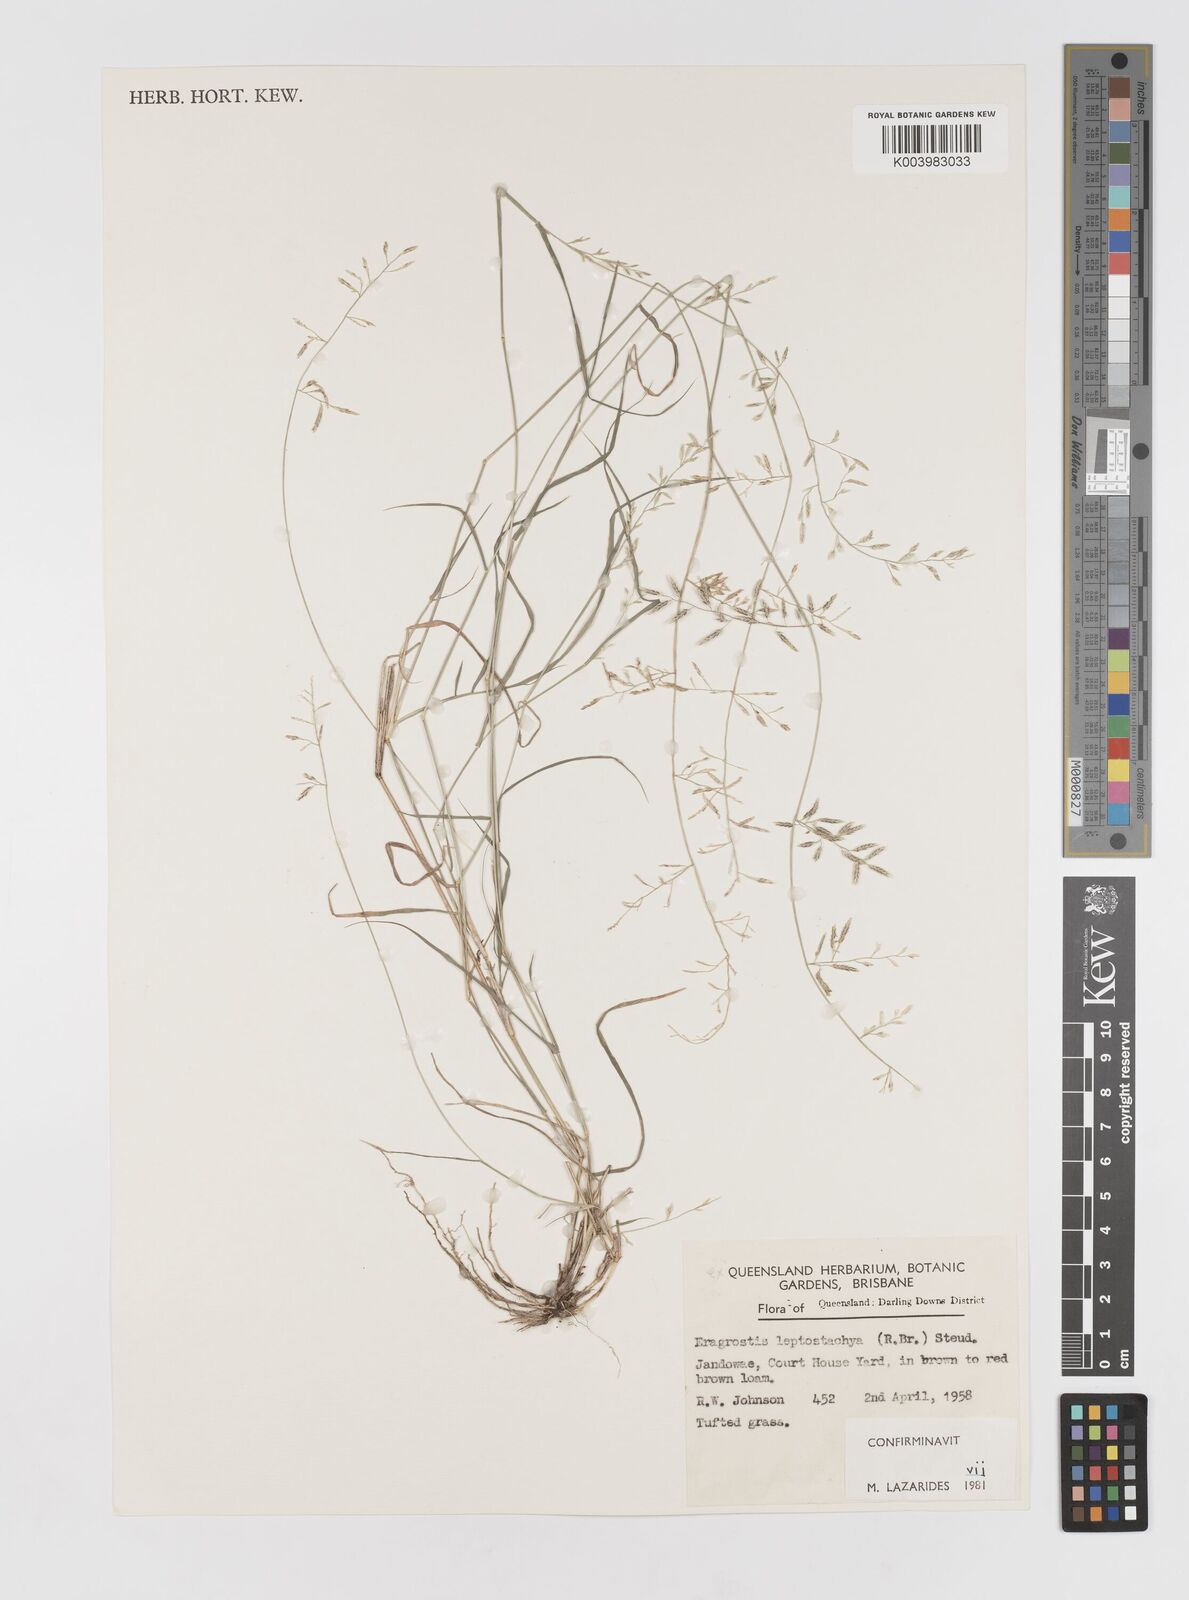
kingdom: Plantae
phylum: Tracheophyta
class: Liliopsida
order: Poales
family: Poaceae
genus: Eragrostis
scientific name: Eragrostis leptostachya
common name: Australian lovegrass
